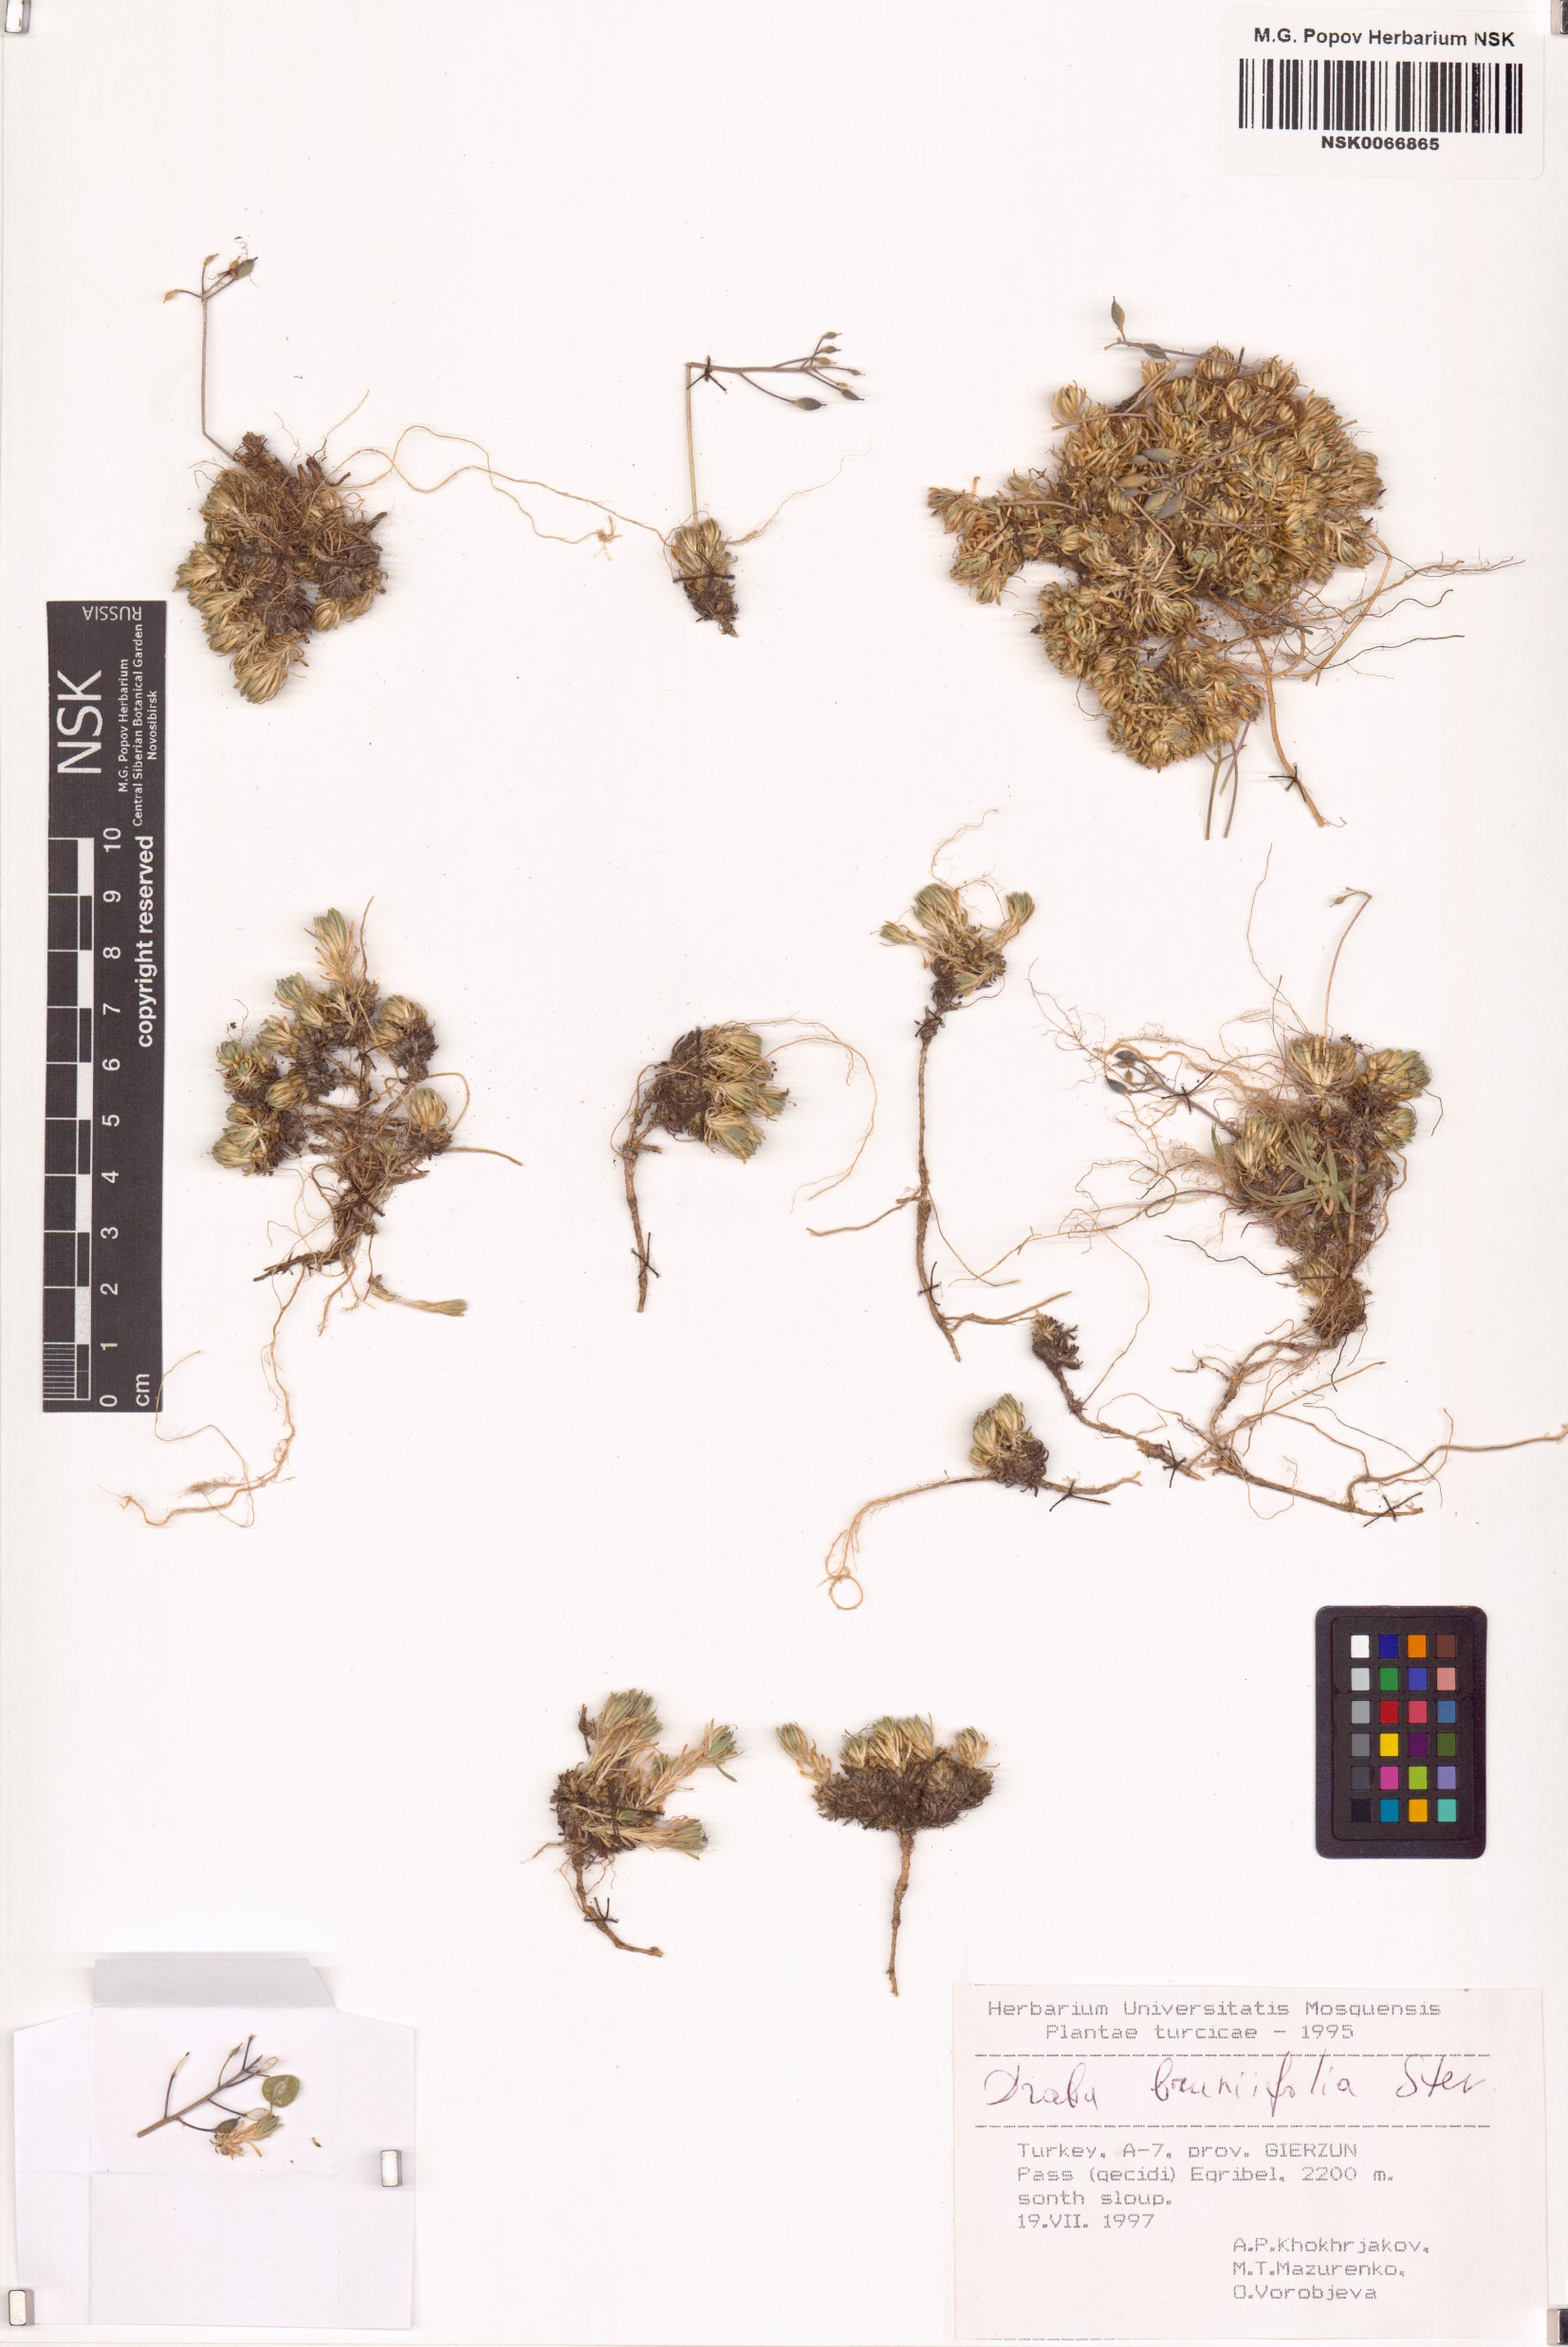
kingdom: Plantae
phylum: Tracheophyta
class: Magnoliopsida
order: Brassicales
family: Brassicaceae
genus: Draba
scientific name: Draba bruniifolia
